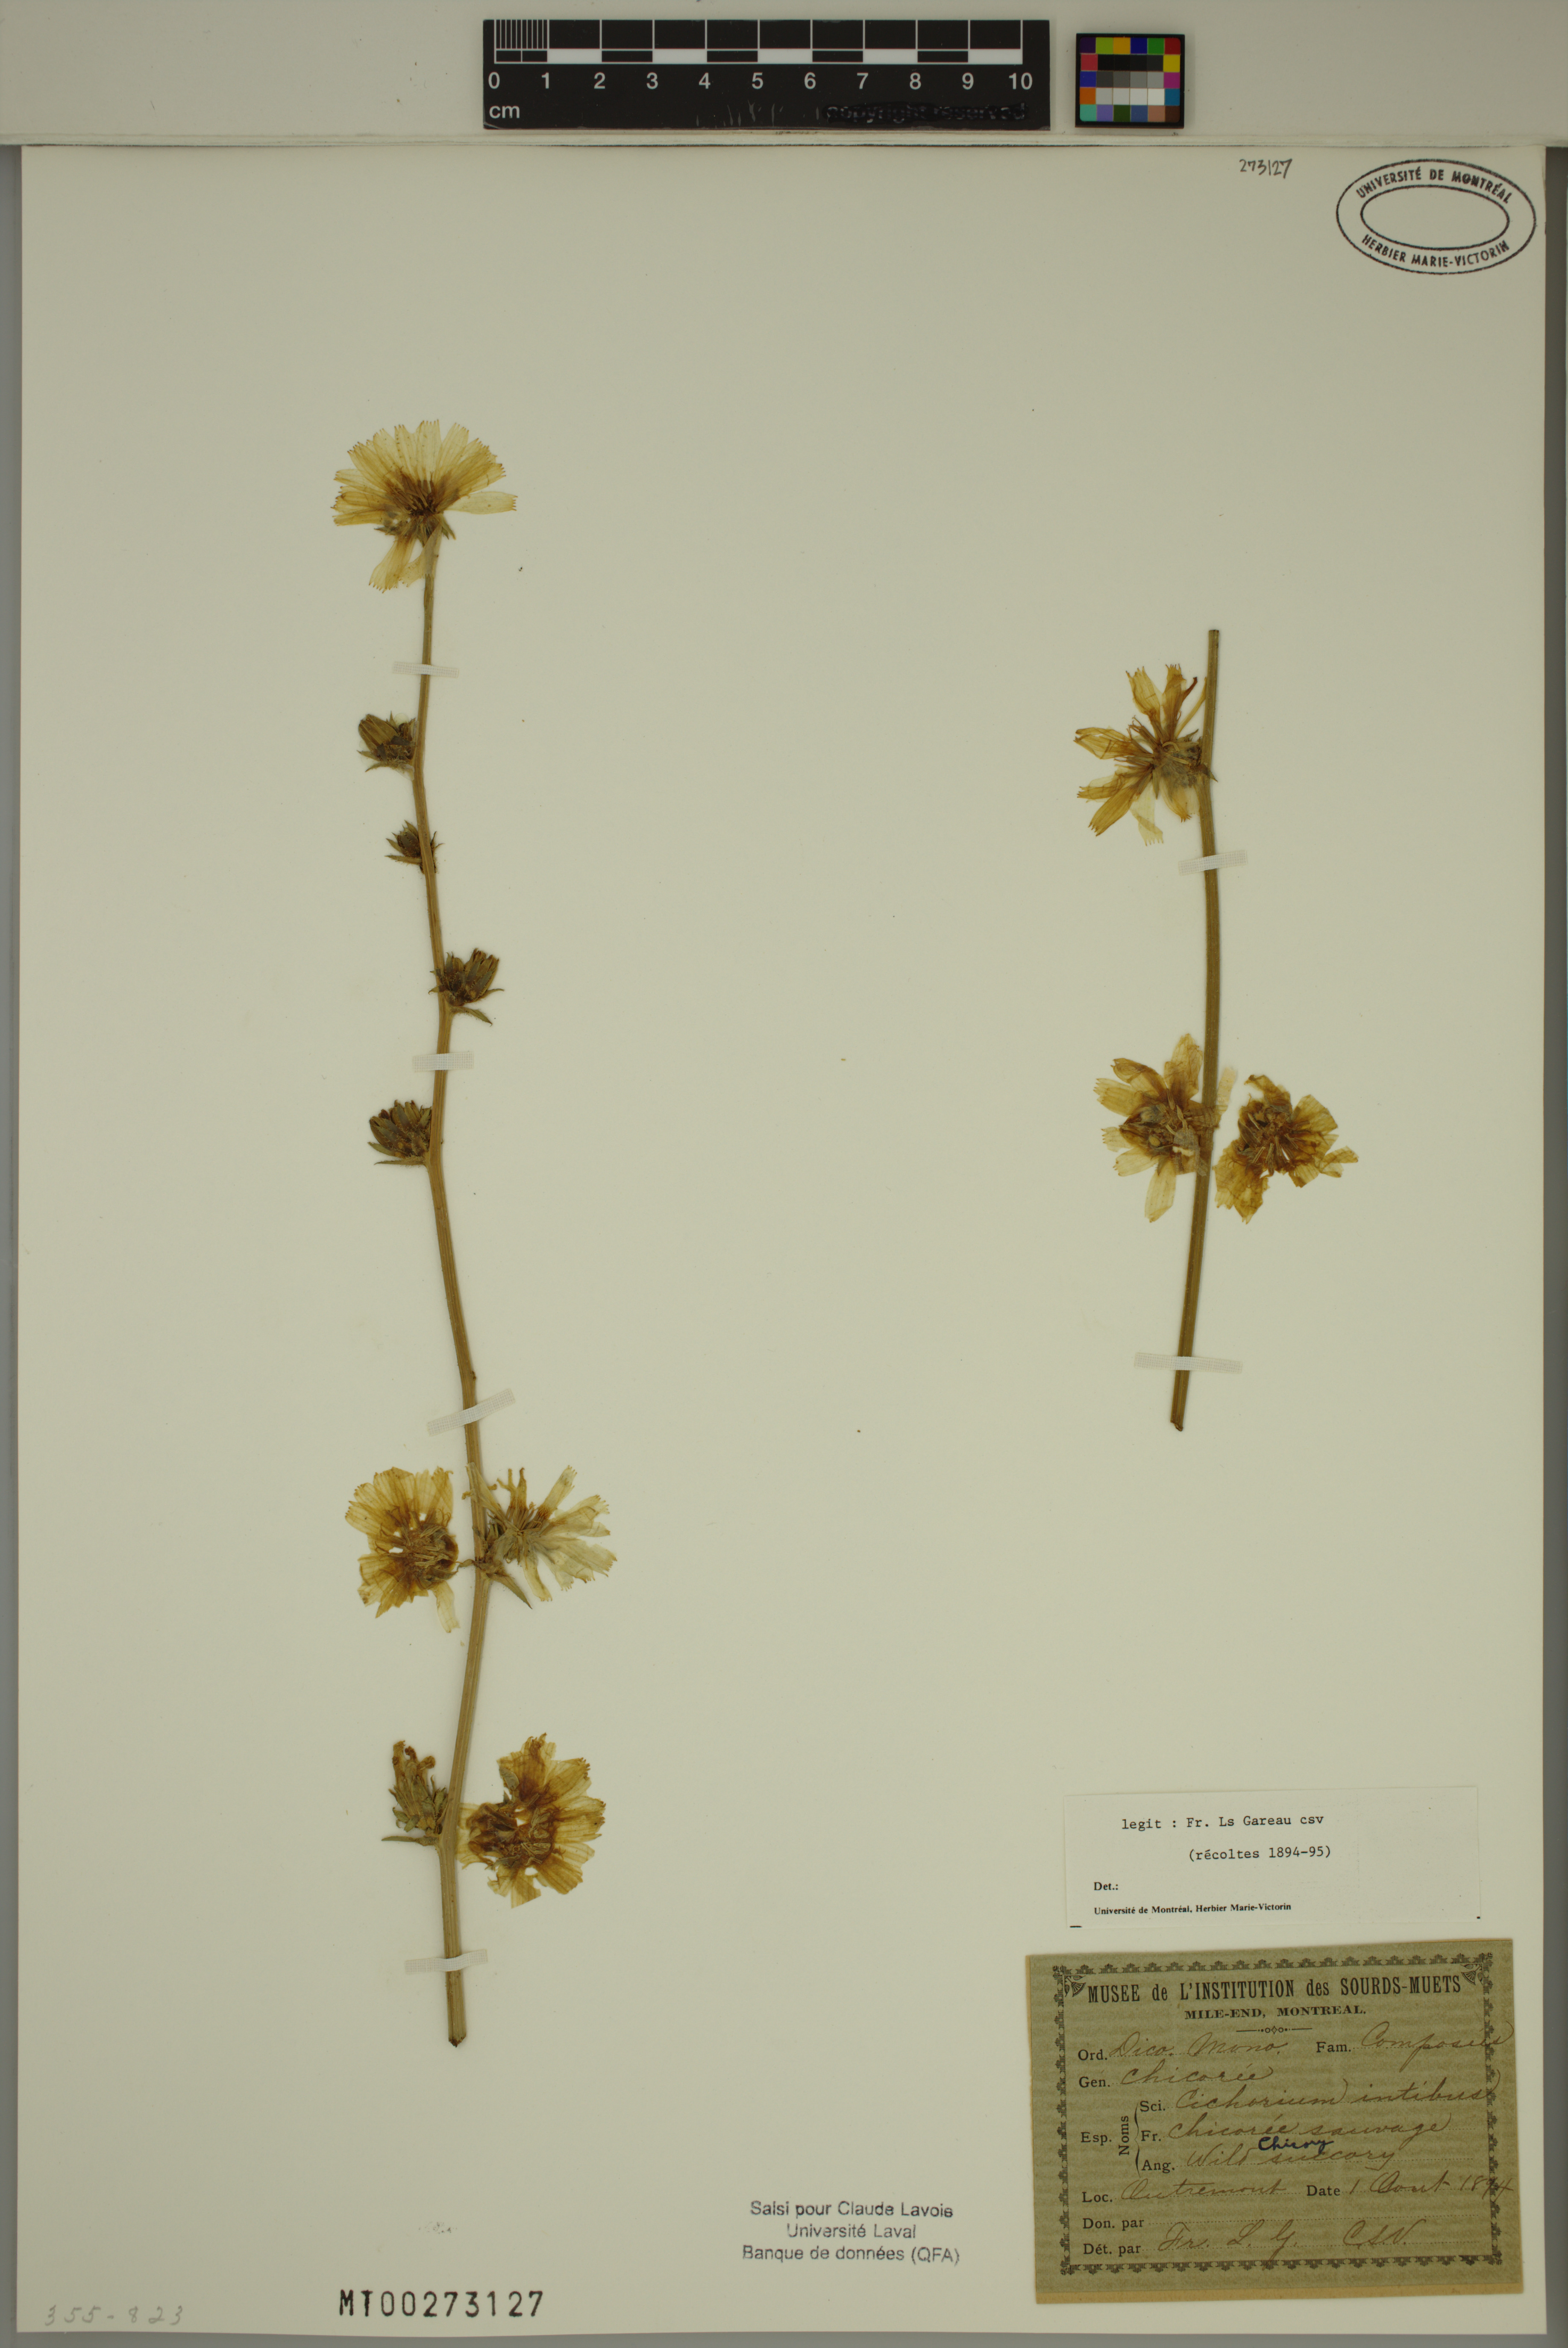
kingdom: Plantae
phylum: Tracheophyta
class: Magnoliopsida
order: Asterales
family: Asteraceae
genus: Cichorium
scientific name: Cichorium intybus
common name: Chicory
